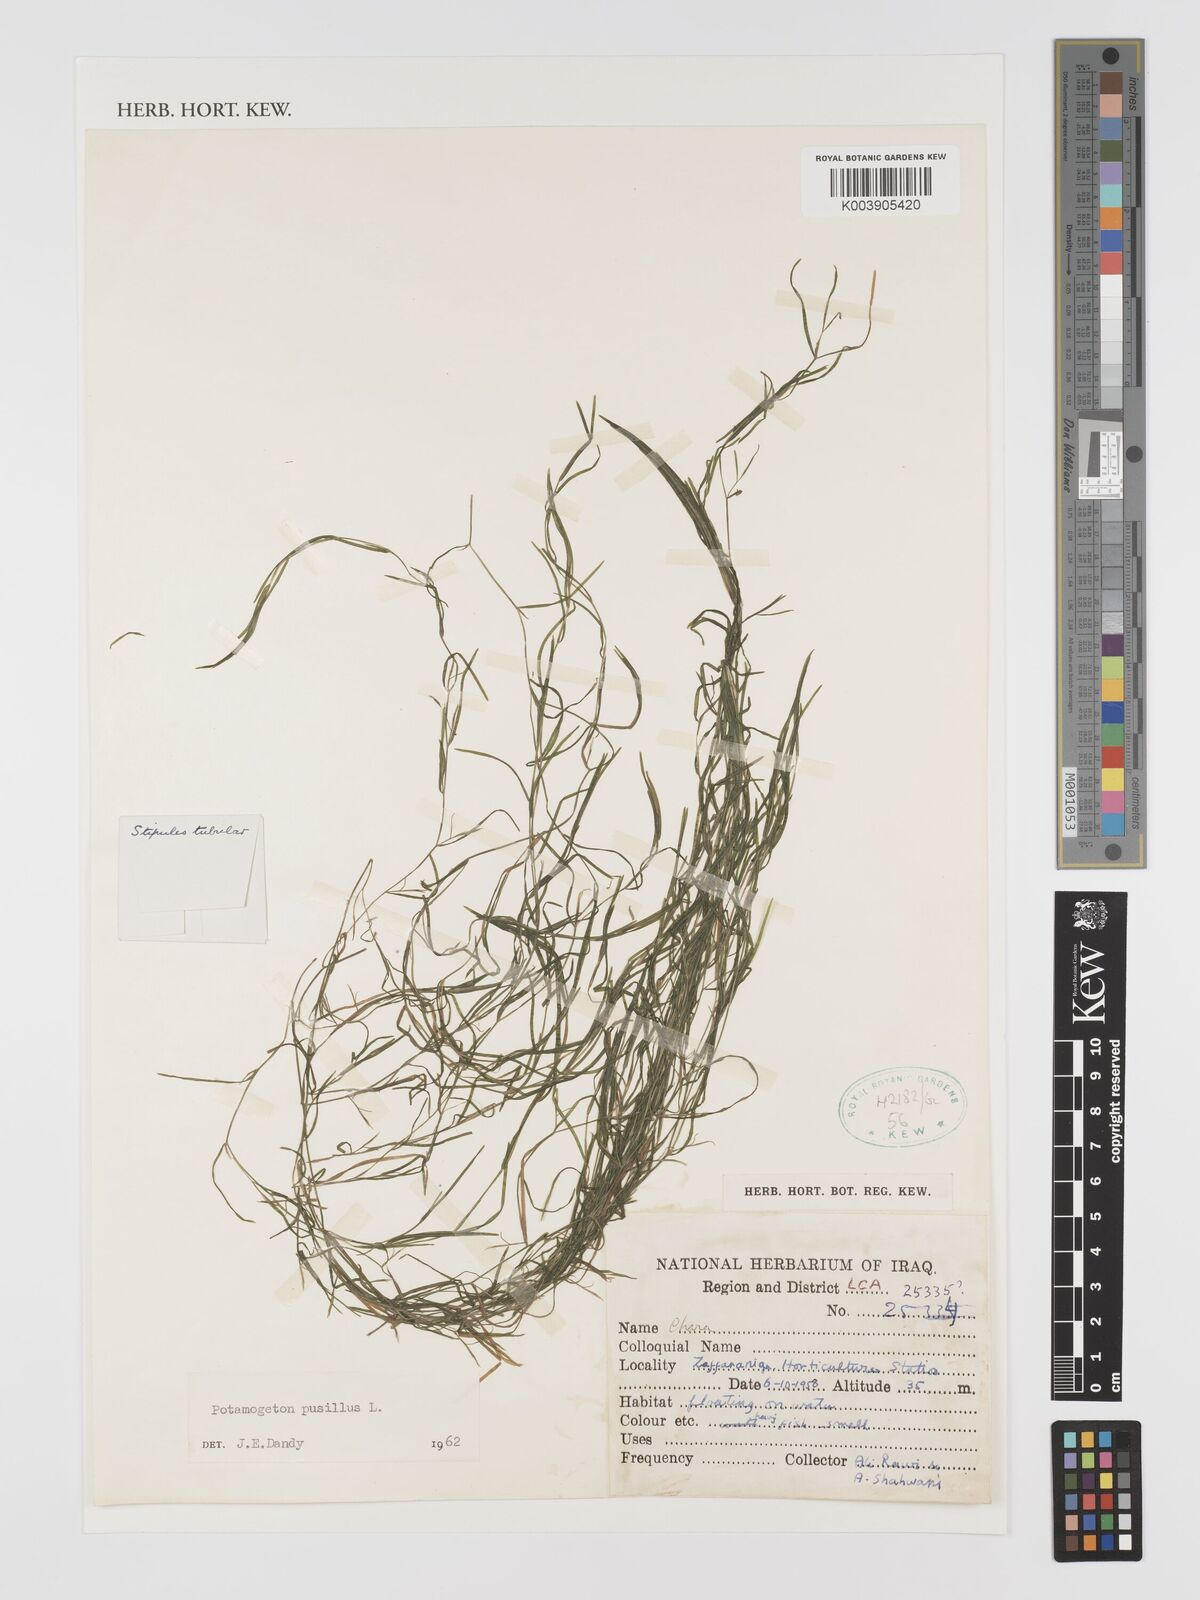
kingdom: Plantae
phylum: Tracheophyta
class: Liliopsida
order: Alismatales
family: Potamogetonaceae
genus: Potamogeton
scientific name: Potamogeton pusillus
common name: Lesser pondweed
